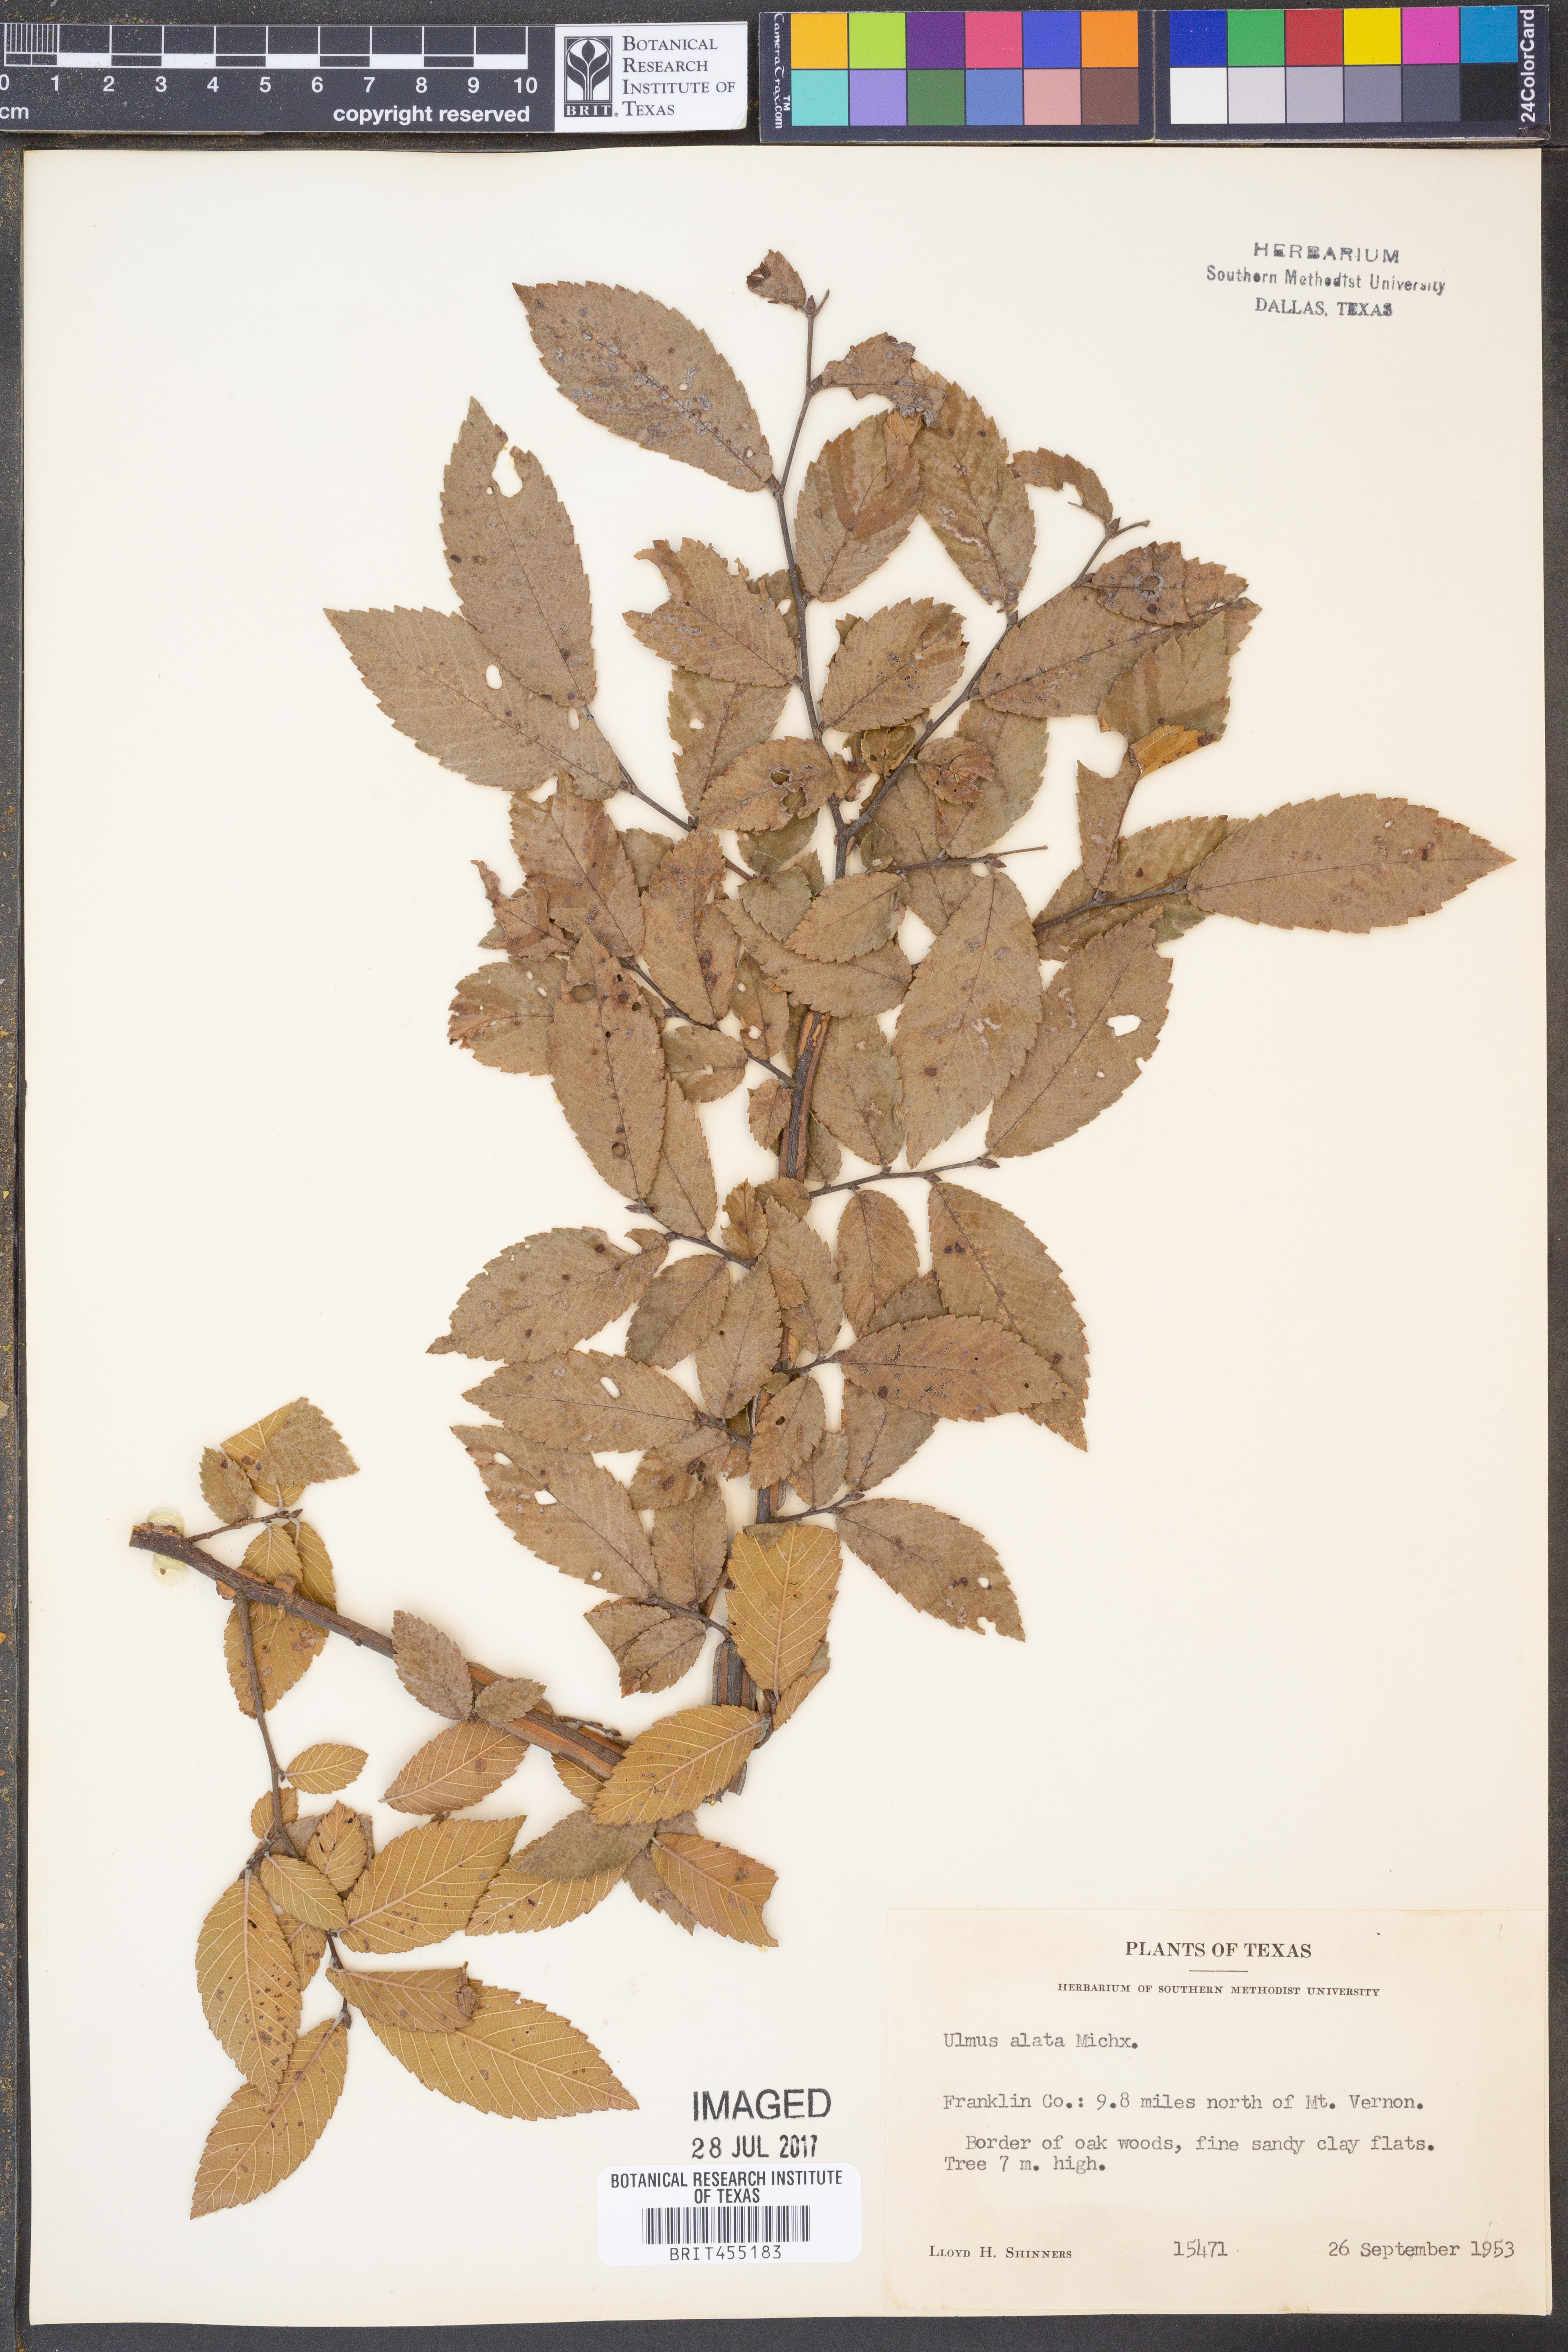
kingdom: Plantae
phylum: Tracheophyta
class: Magnoliopsida
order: Rosales
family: Ulmaceae
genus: Ulmus
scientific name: Ulmus alata
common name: Winged elm
